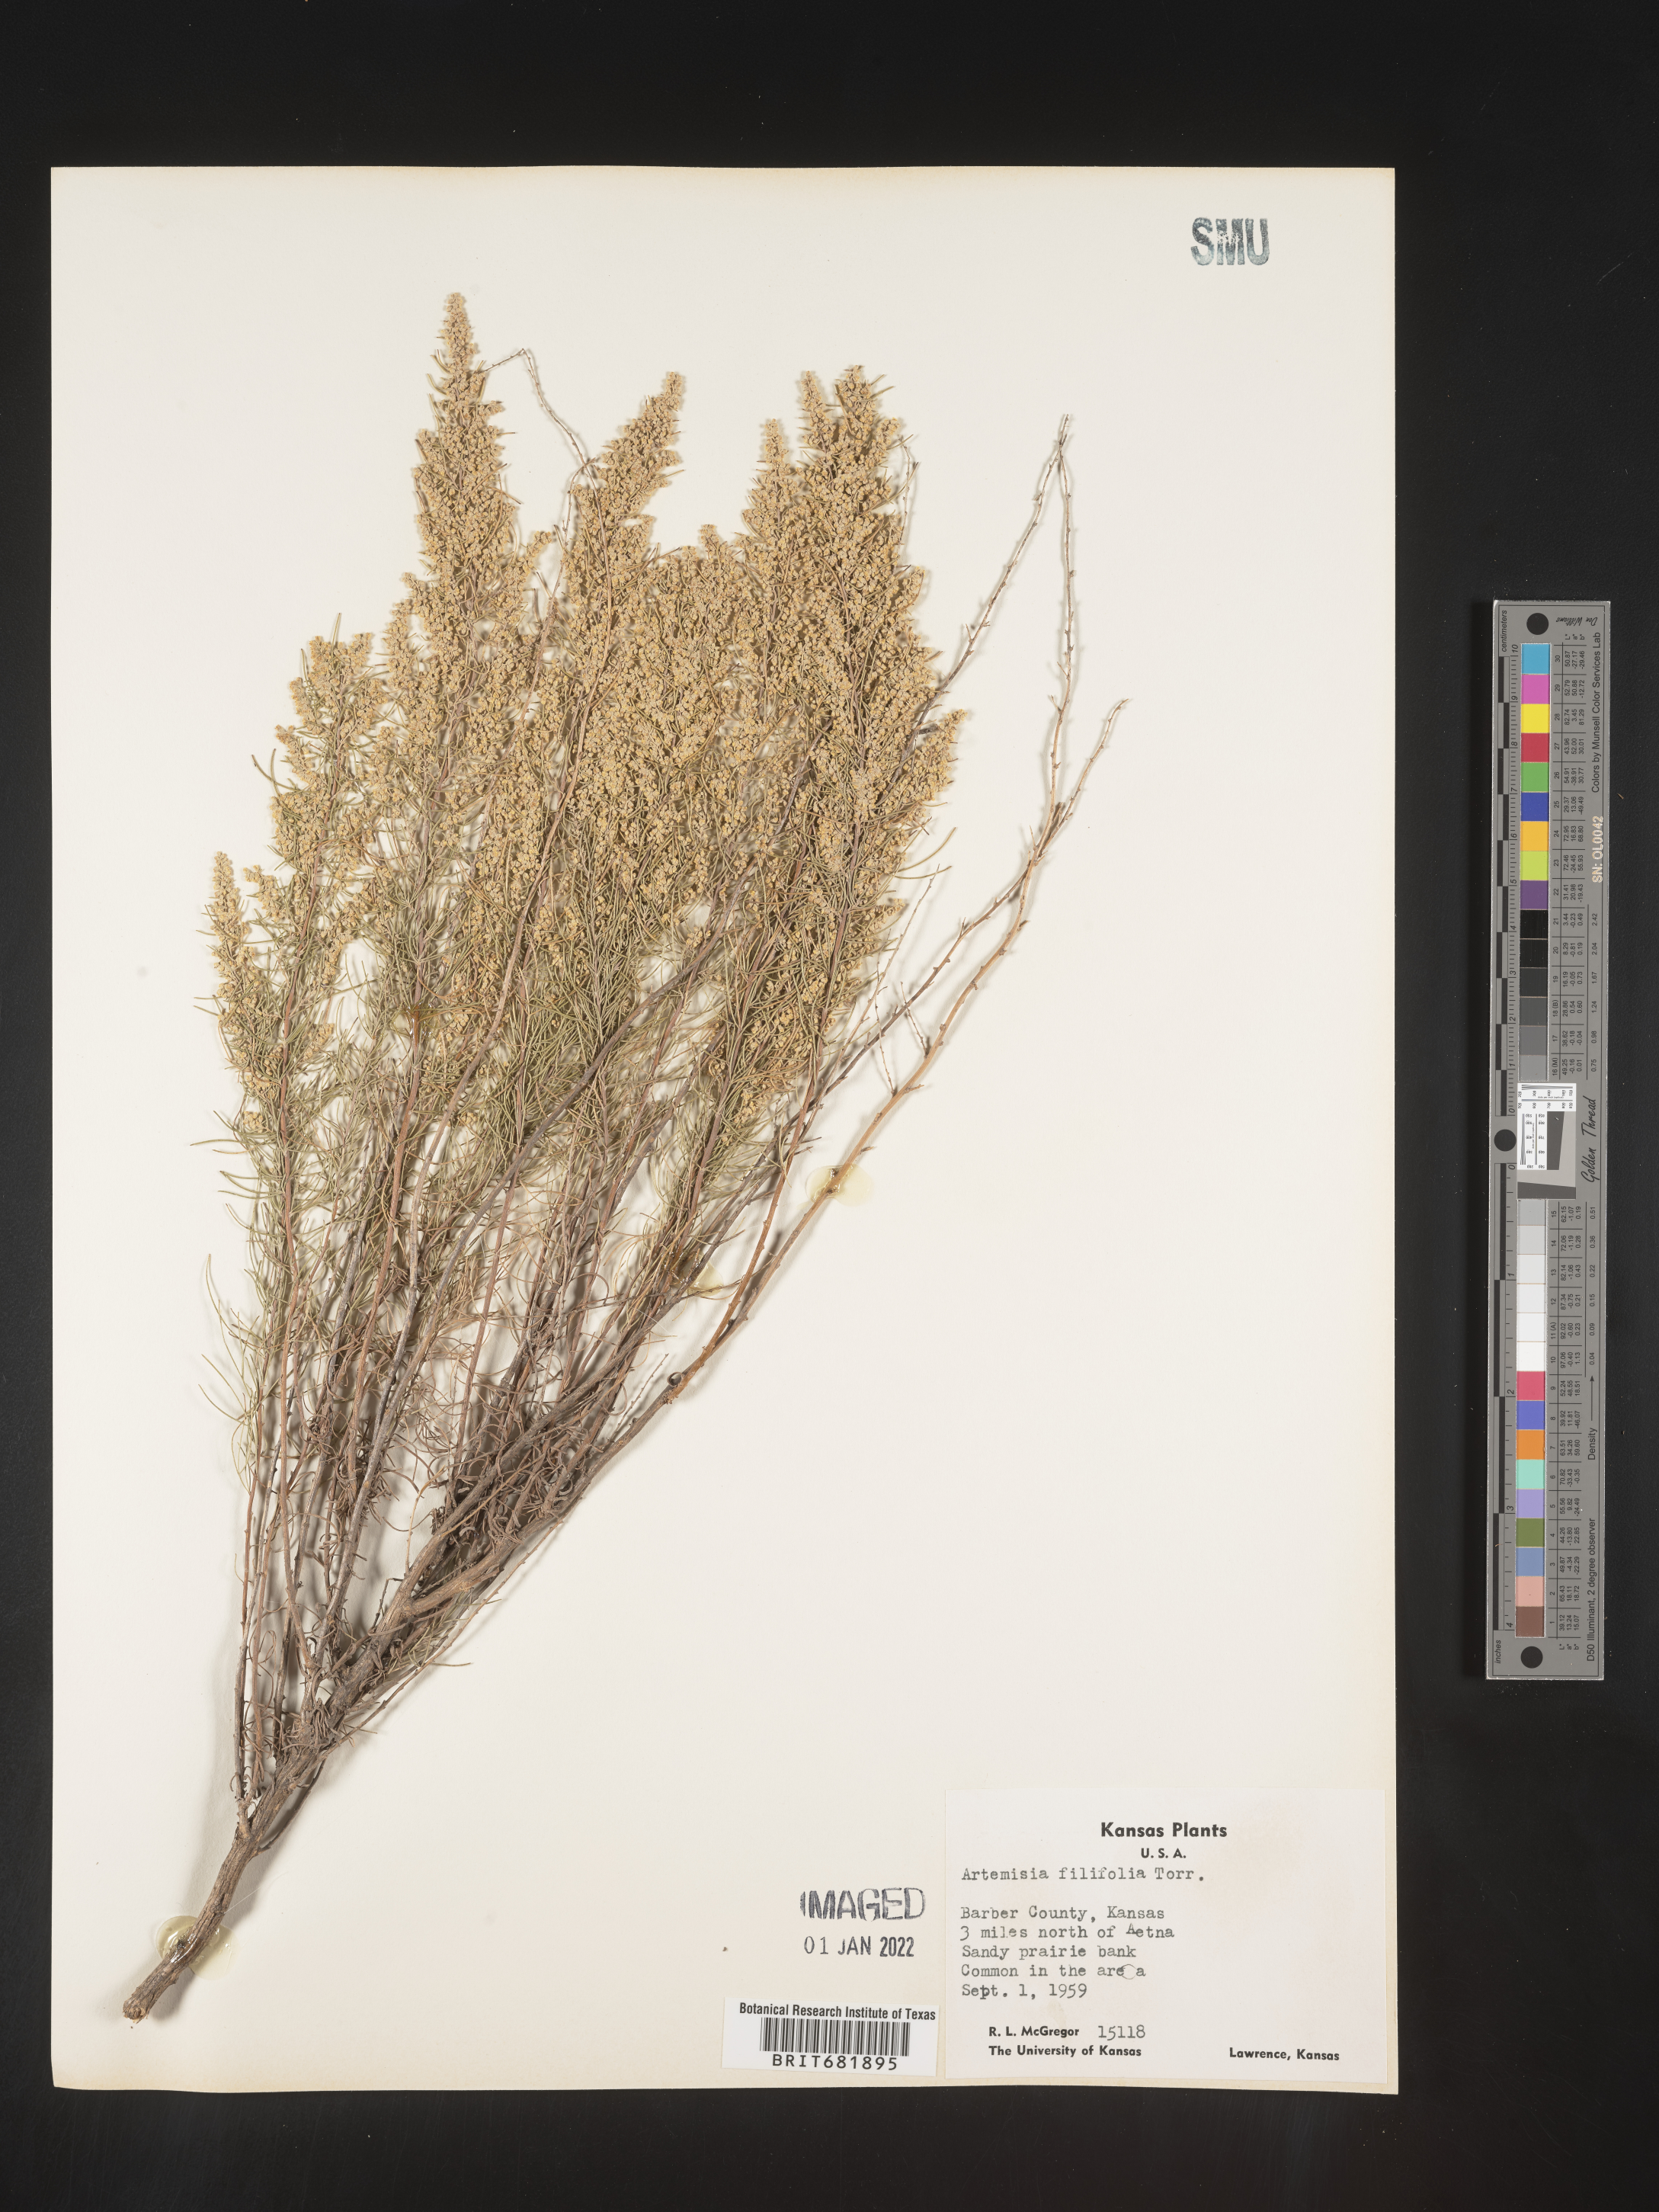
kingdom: Plantae
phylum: Tracheophyta
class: Magnoliopsida
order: Asterales
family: Asteraceae
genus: Artemisia
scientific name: Artemisia filifolia
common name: Sand-sage
